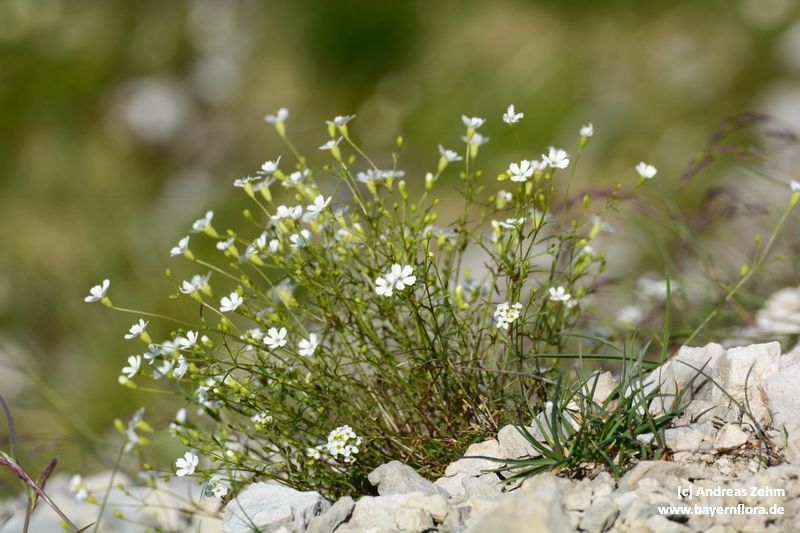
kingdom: Plantae
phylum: Tracheophyta
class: Magnoliopsida
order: Caryophyllales
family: Caryophyllaceae
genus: Heliosperma
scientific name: Heliosperma pusillum
